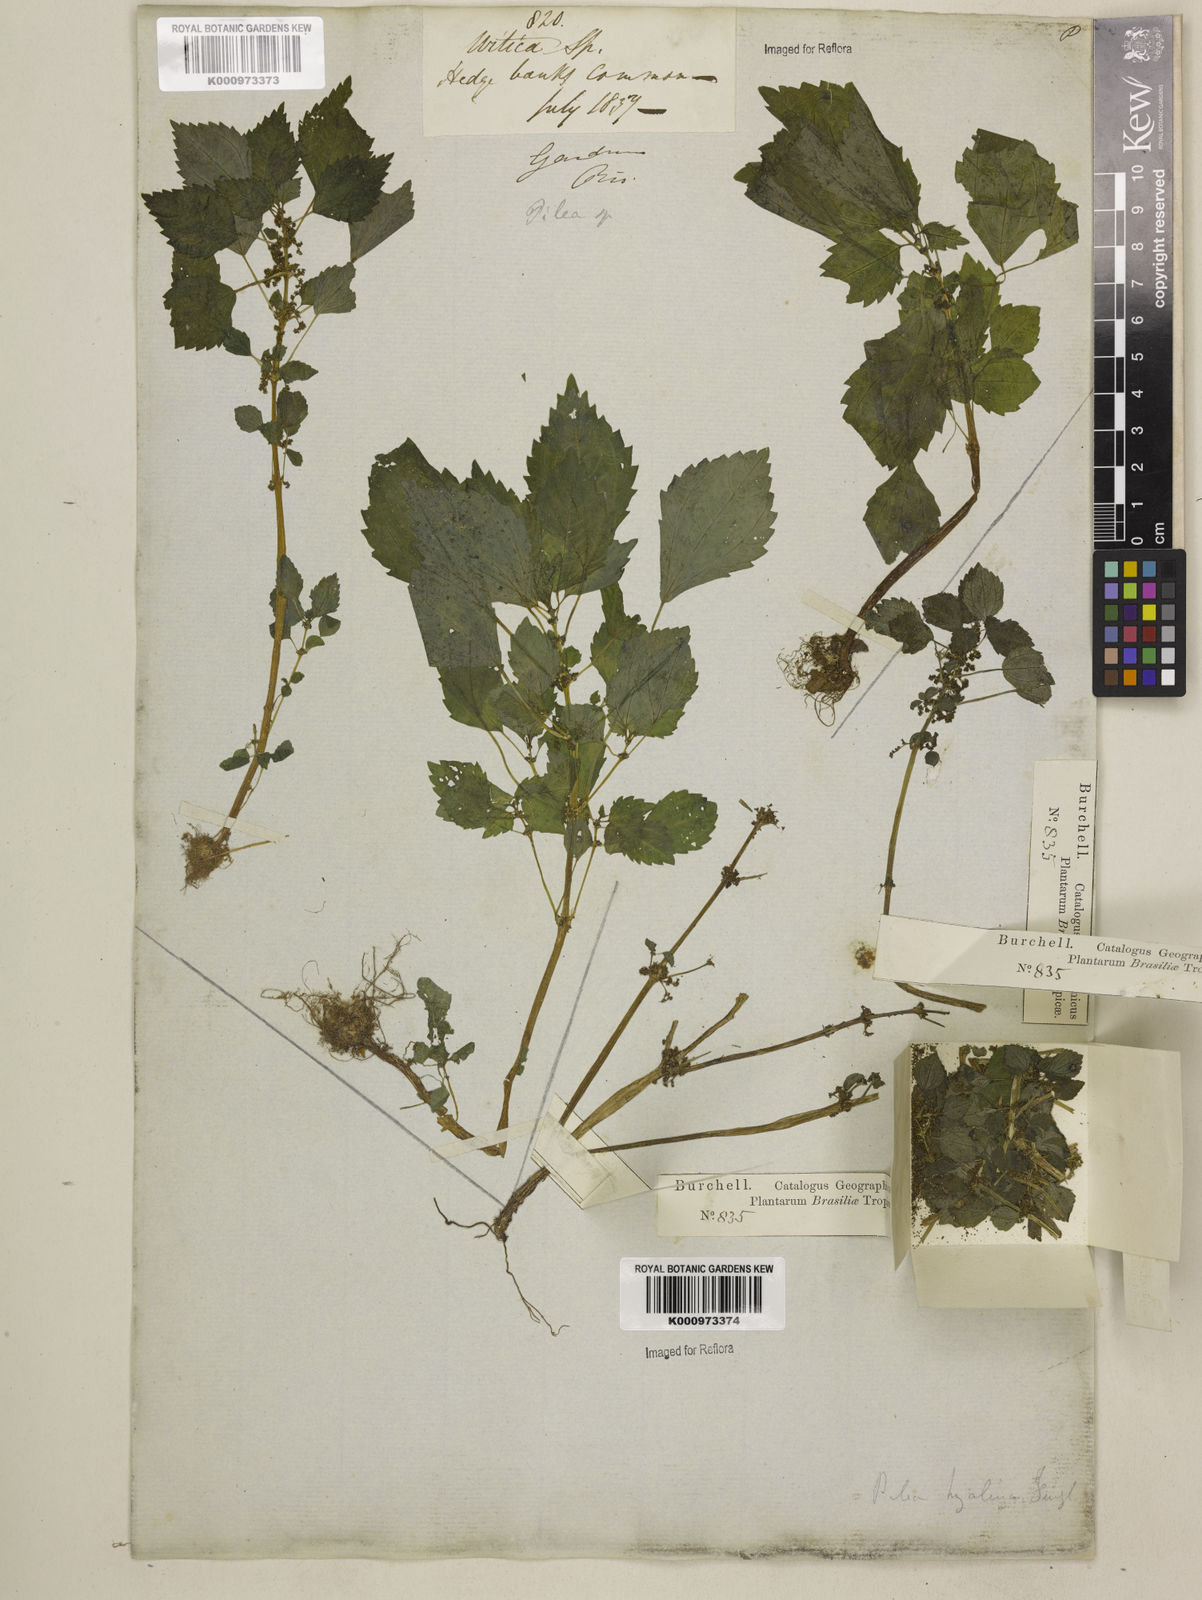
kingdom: Plantae
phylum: Tracheophyta
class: Magnoliopsida
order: Rosales
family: Urticaceae
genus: Pilea
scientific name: Pilea hyalina
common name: Virdrillo
